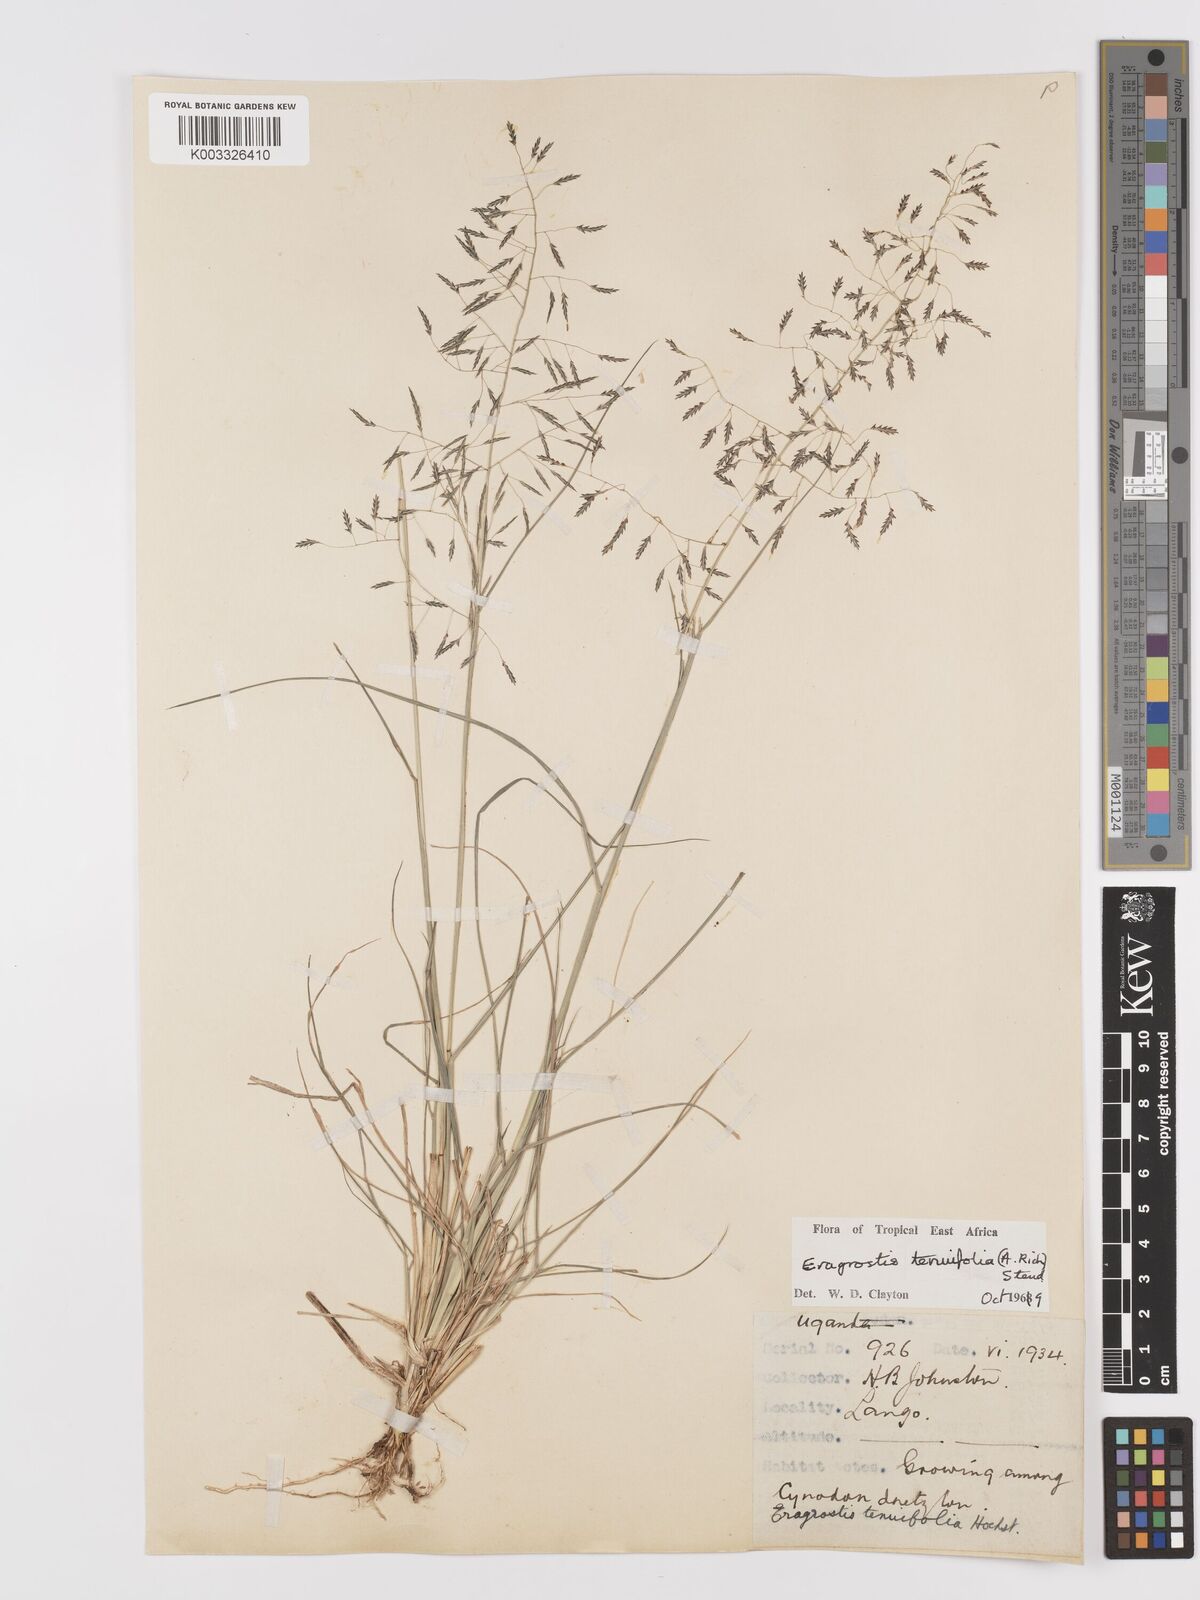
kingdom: Plantae
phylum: Tracheophyta
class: Liliopsida
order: Poales
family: Poaceae
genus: Eragrostis
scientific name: Eragrostis tenuifolia
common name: Elastic grass
